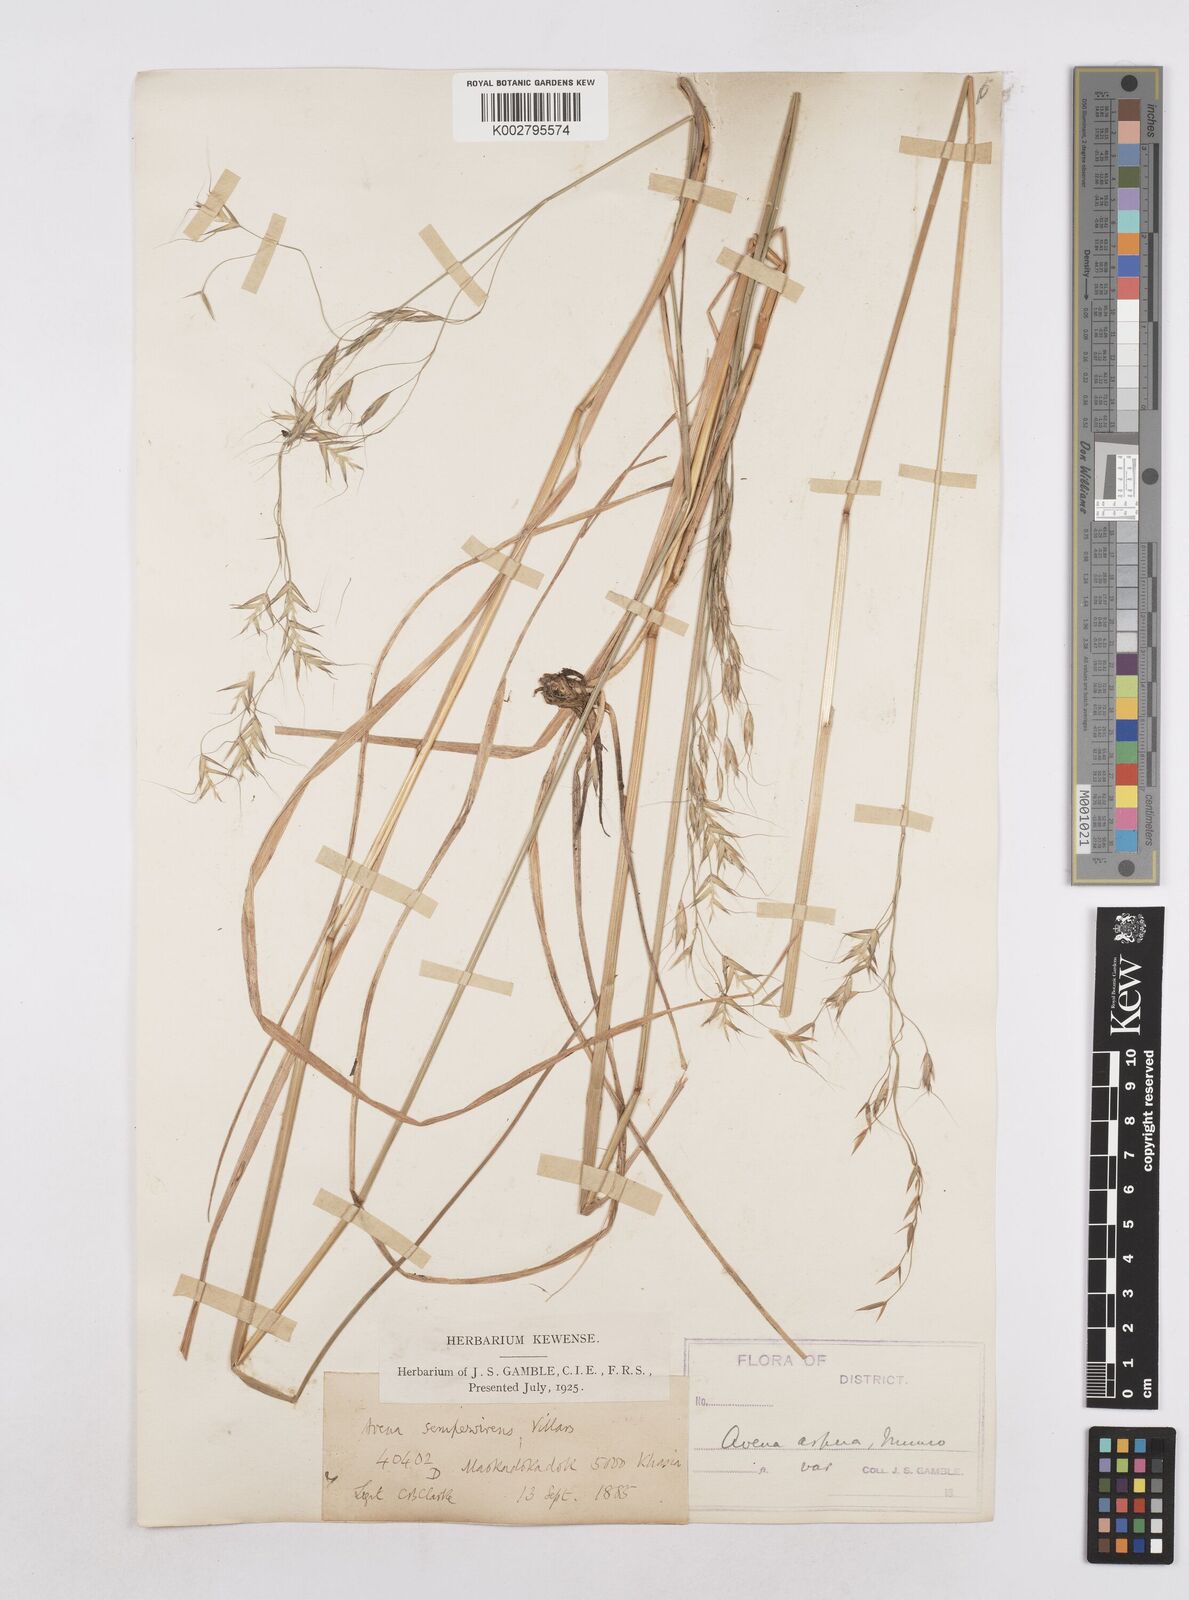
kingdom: Plantae
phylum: Tracheophyta
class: Liliopsida
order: Poales
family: Poaceae
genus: Trisetopsis
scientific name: Trisetopsis junghuhnii
